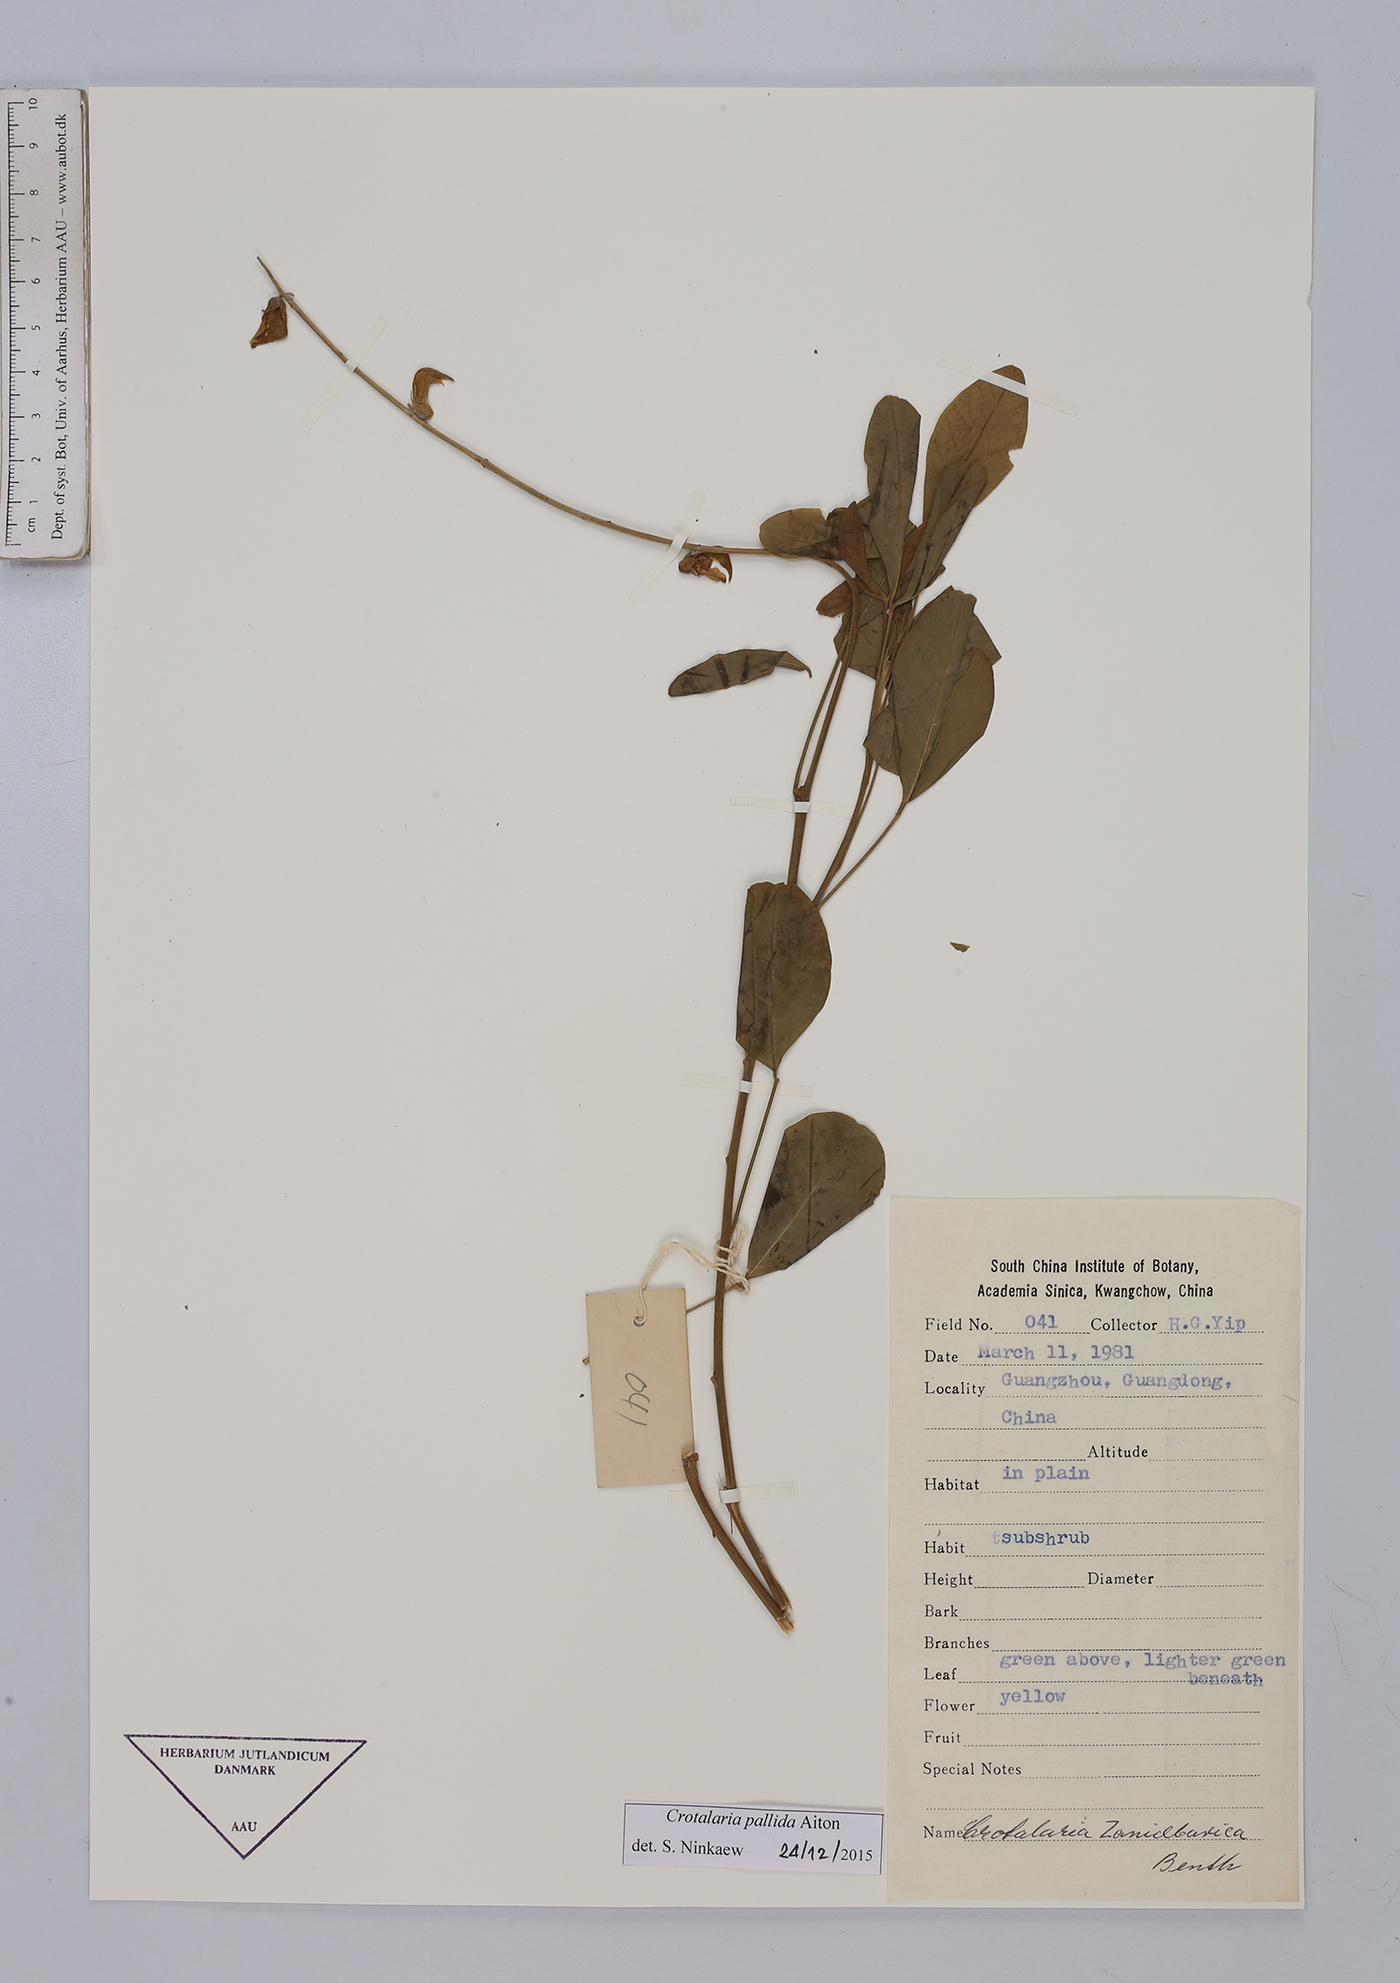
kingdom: Plantae
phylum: Tracheophyta
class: Magnoliopsida
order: Fabales
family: Fabaceae
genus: Crotalaria
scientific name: Crotalaria pallida
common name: Smooth rattlebox
